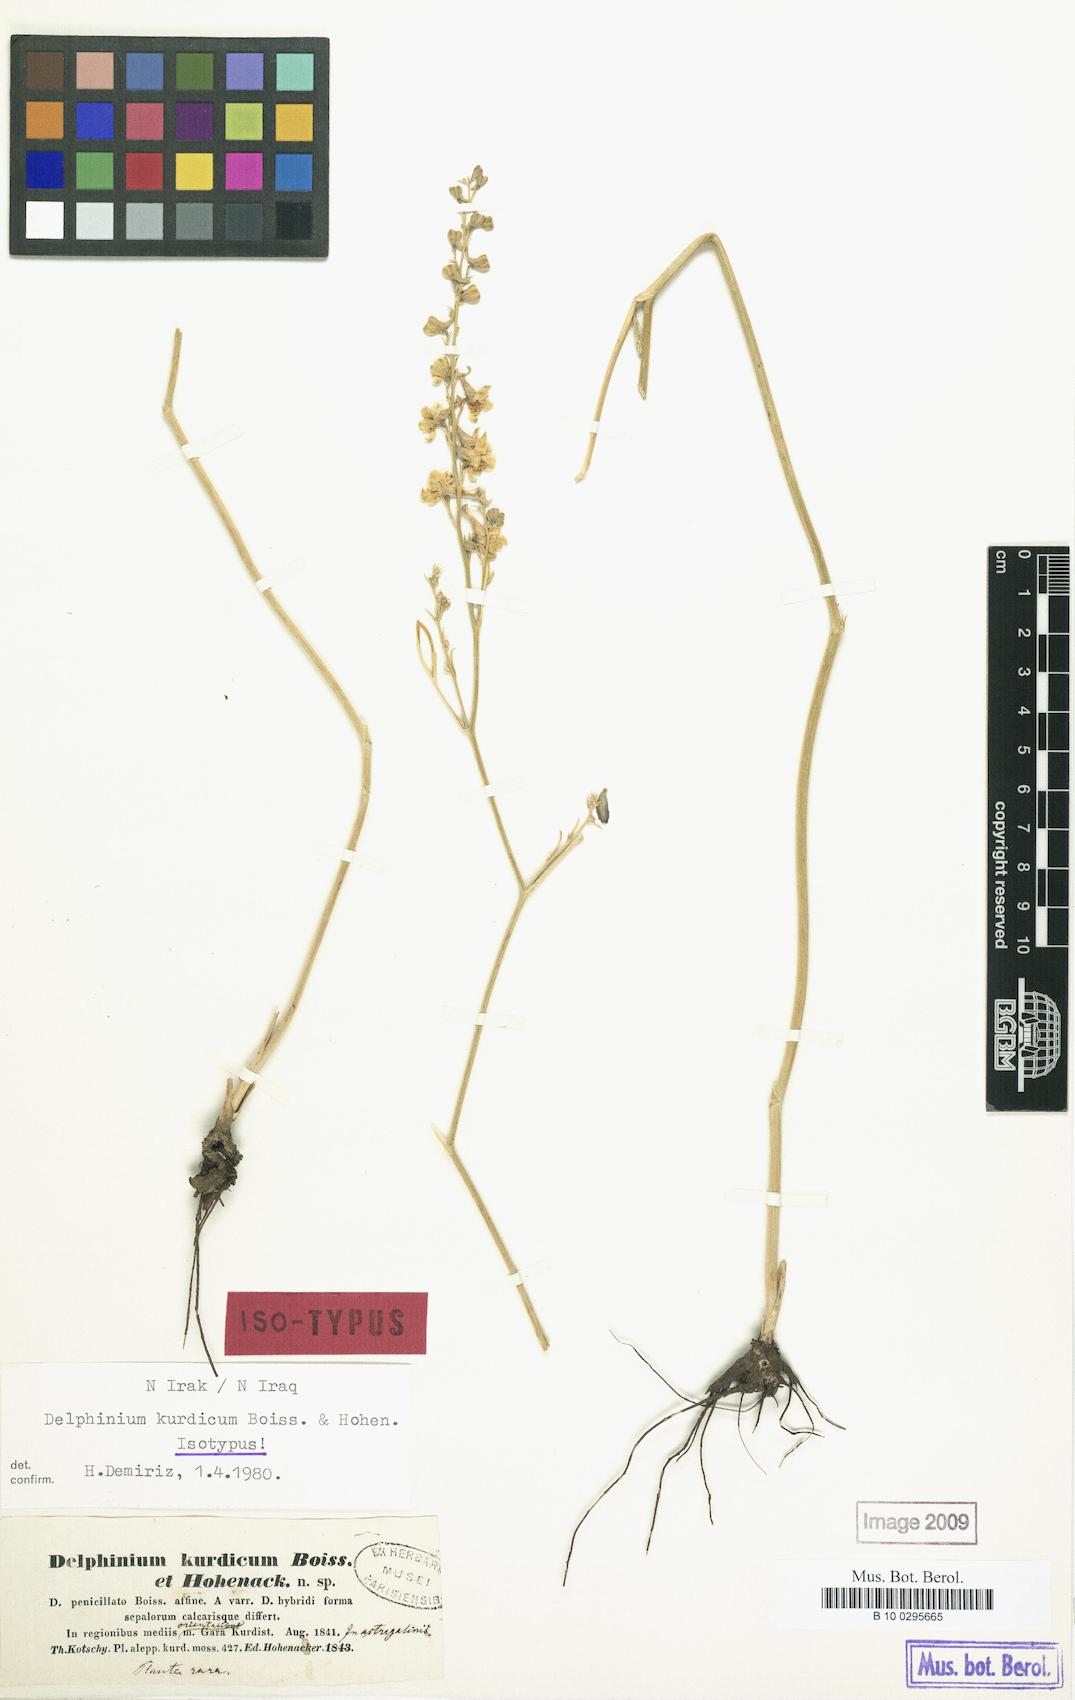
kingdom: Plantae
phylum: Tracheophyta
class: Magnoliopsida
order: Ranunculales
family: Ranunculaceae
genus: Delphinium
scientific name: Delphinium kurdicum
